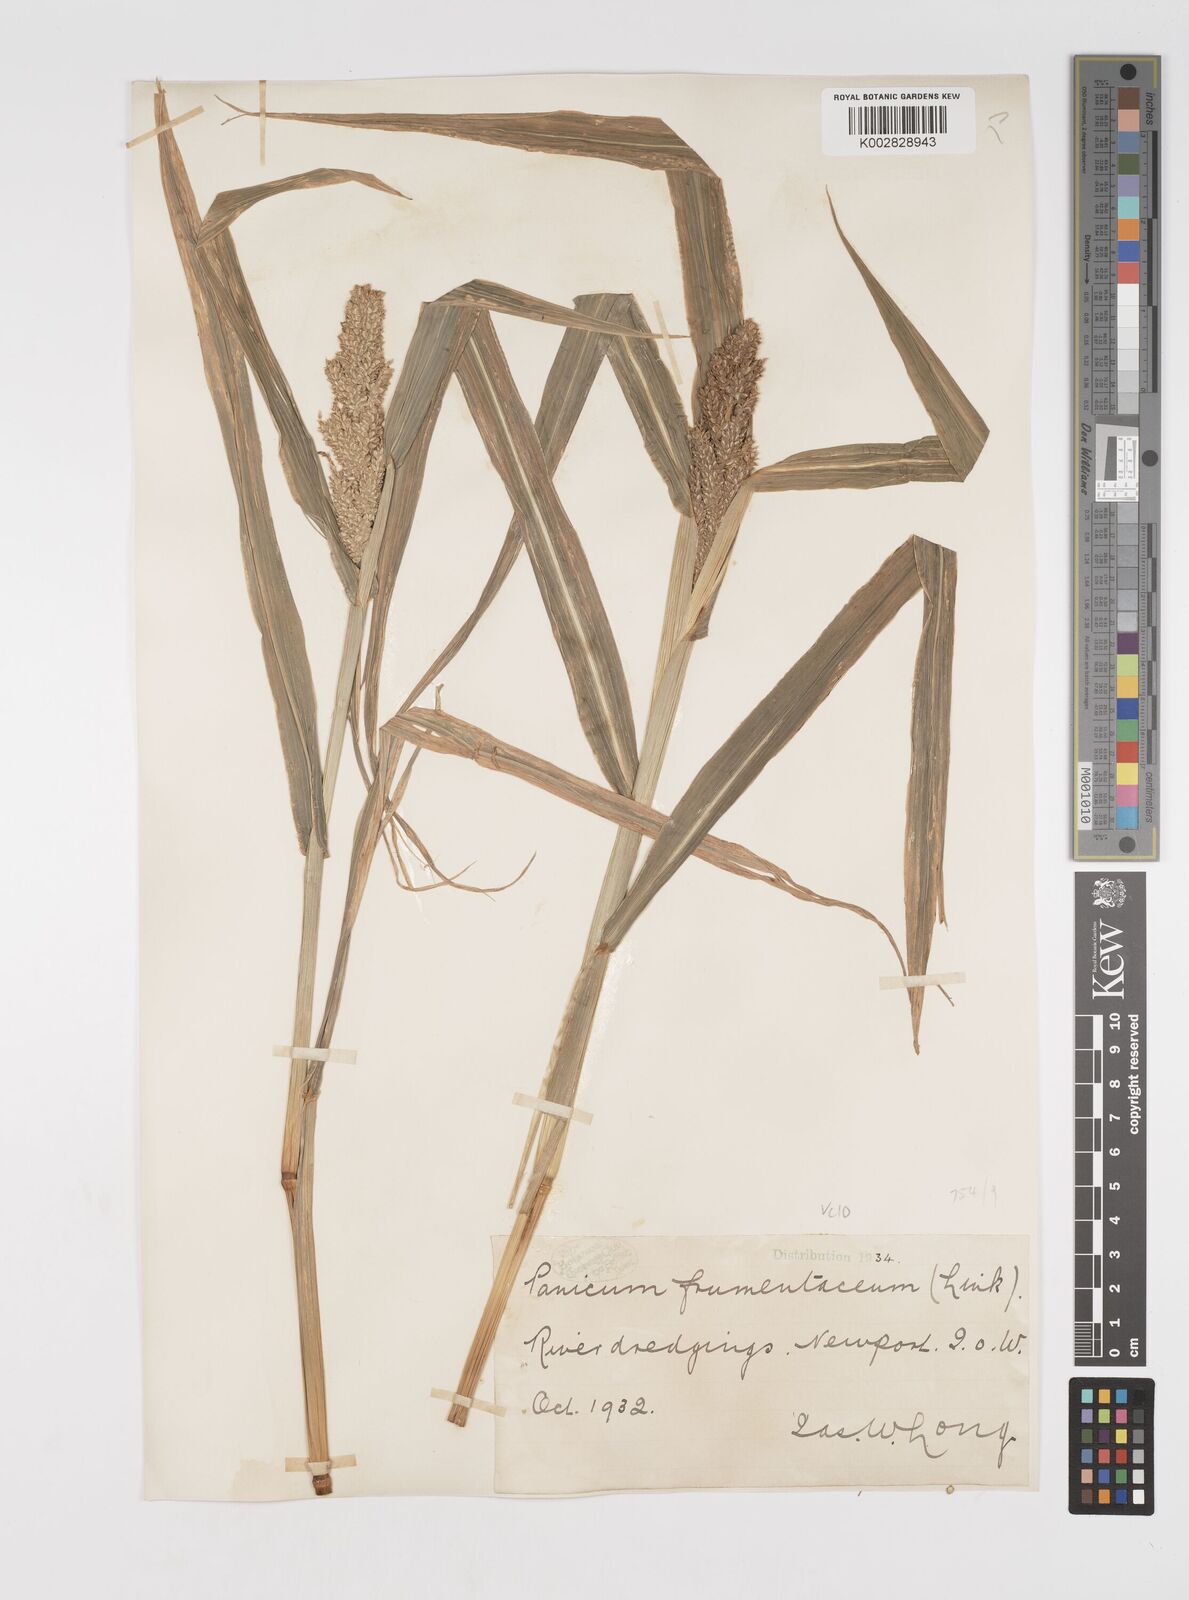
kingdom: Plantae
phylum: Tracheophyta
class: Liliopsida
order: Poales
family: Poaceae
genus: Echinochloa
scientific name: Echinochloa frumentacea
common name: Billion-dollar grass
